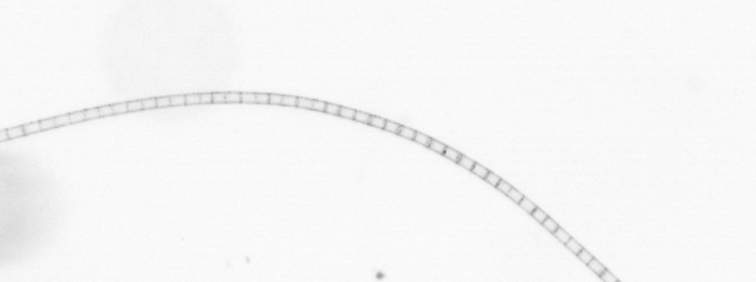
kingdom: Chromista
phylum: Ochrophyta
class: Bacillariophyceae
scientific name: Bacillariophyceae
